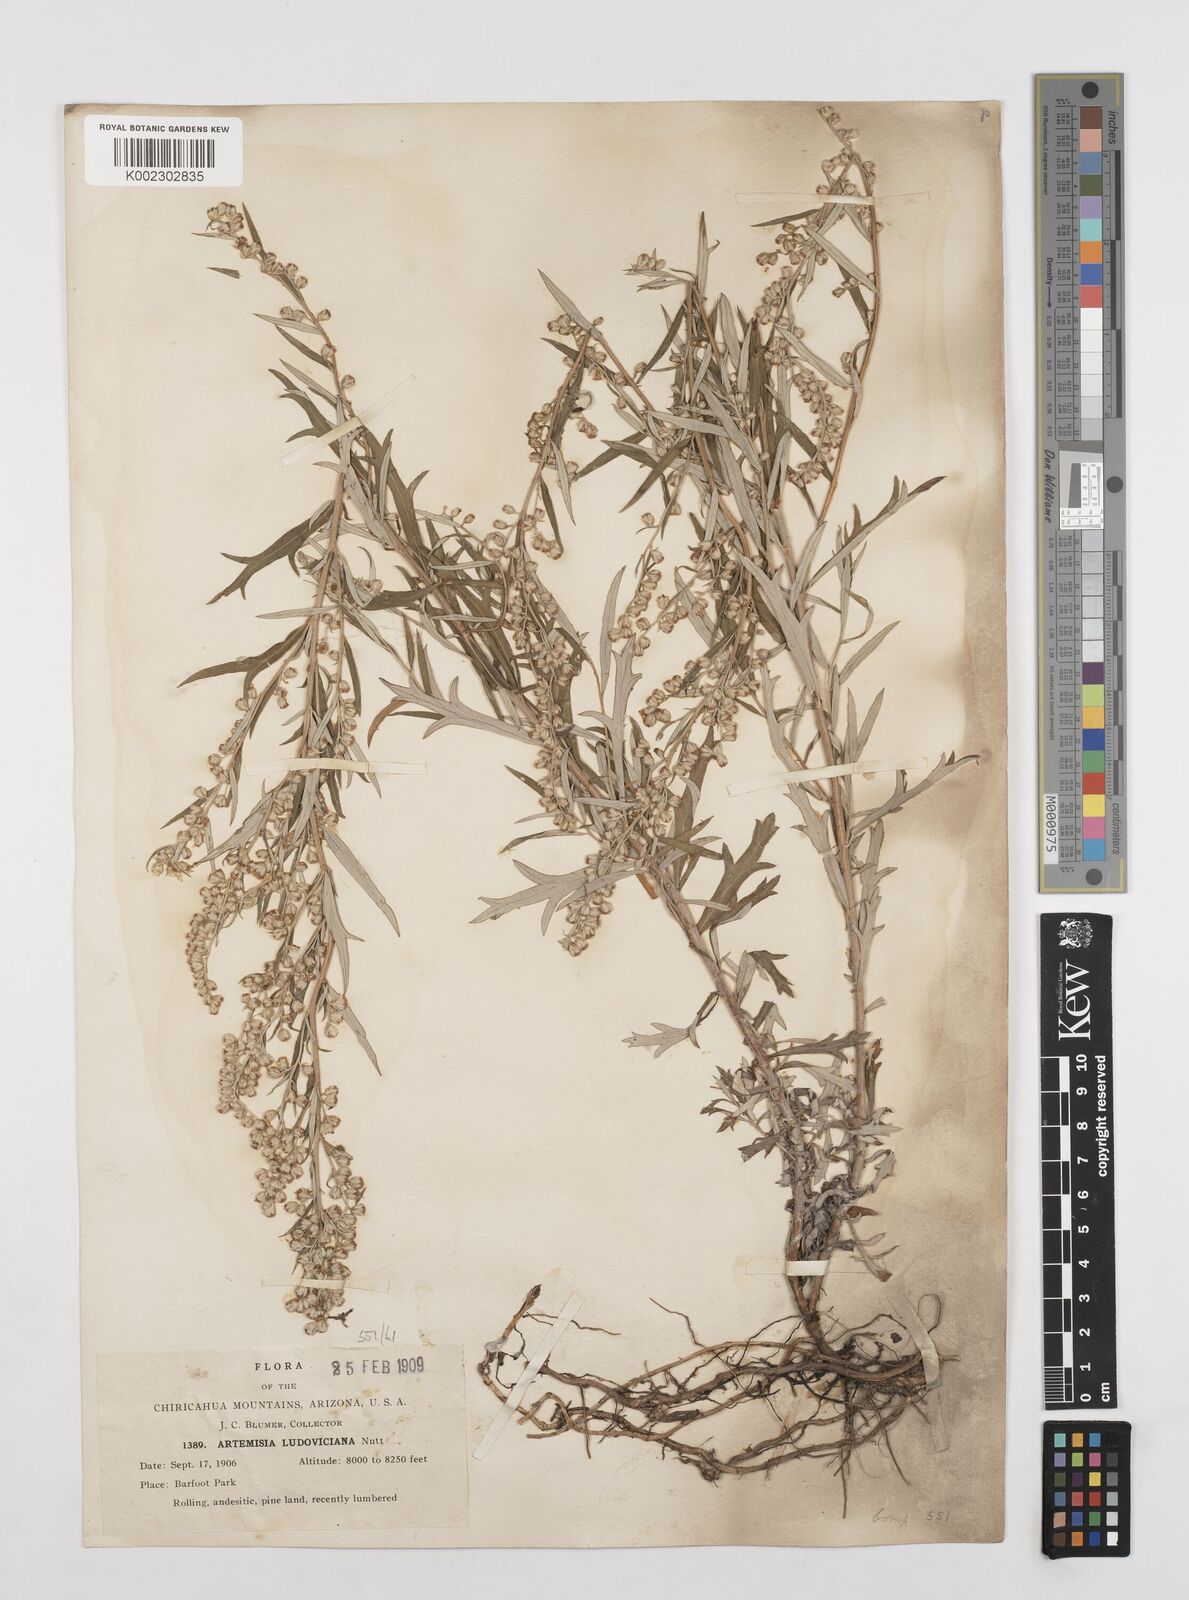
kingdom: Plantae
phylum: Tracheophyta
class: Magnoliopsida
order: Asterales
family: Asteraceae
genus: Artemisia
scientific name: Artemisia ludoviciana
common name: Western mugwort
